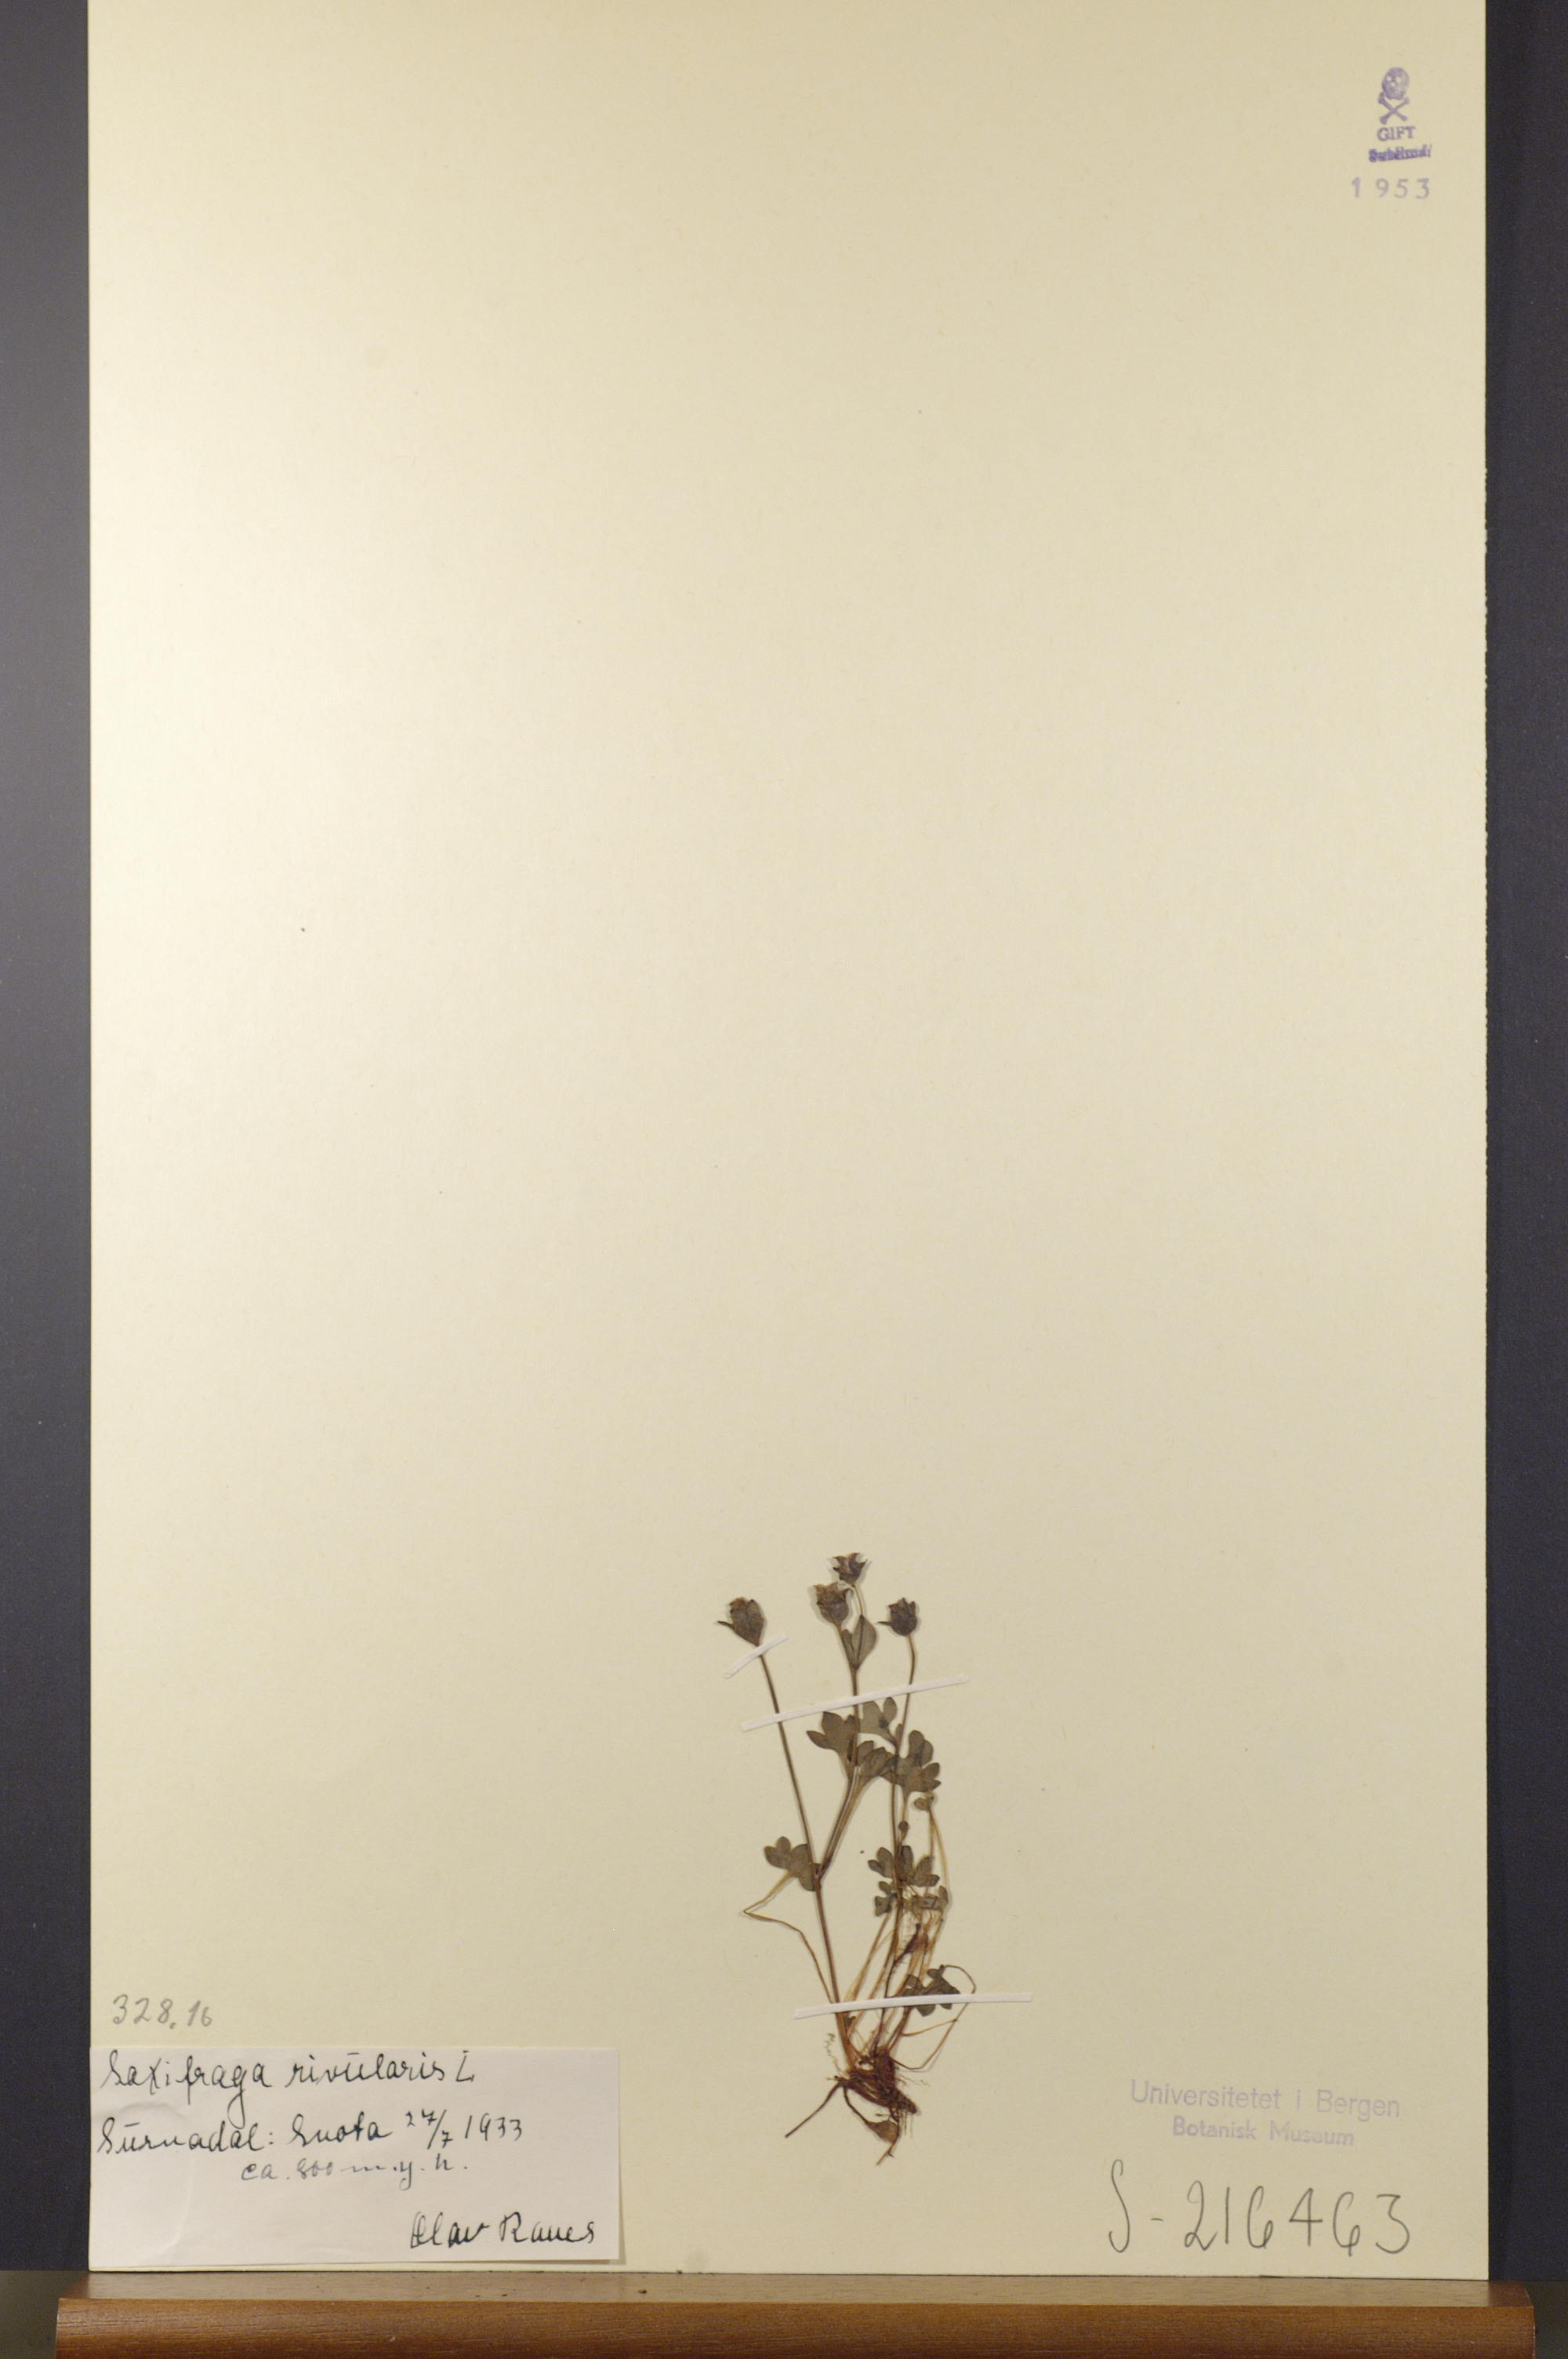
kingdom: Plantae
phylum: Tracheophyta
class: Magnoliopsida
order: Saxifragales
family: Saxifragaceae
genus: Saxifraga
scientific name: Saxifraga rivularis
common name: Highland saxifrage
